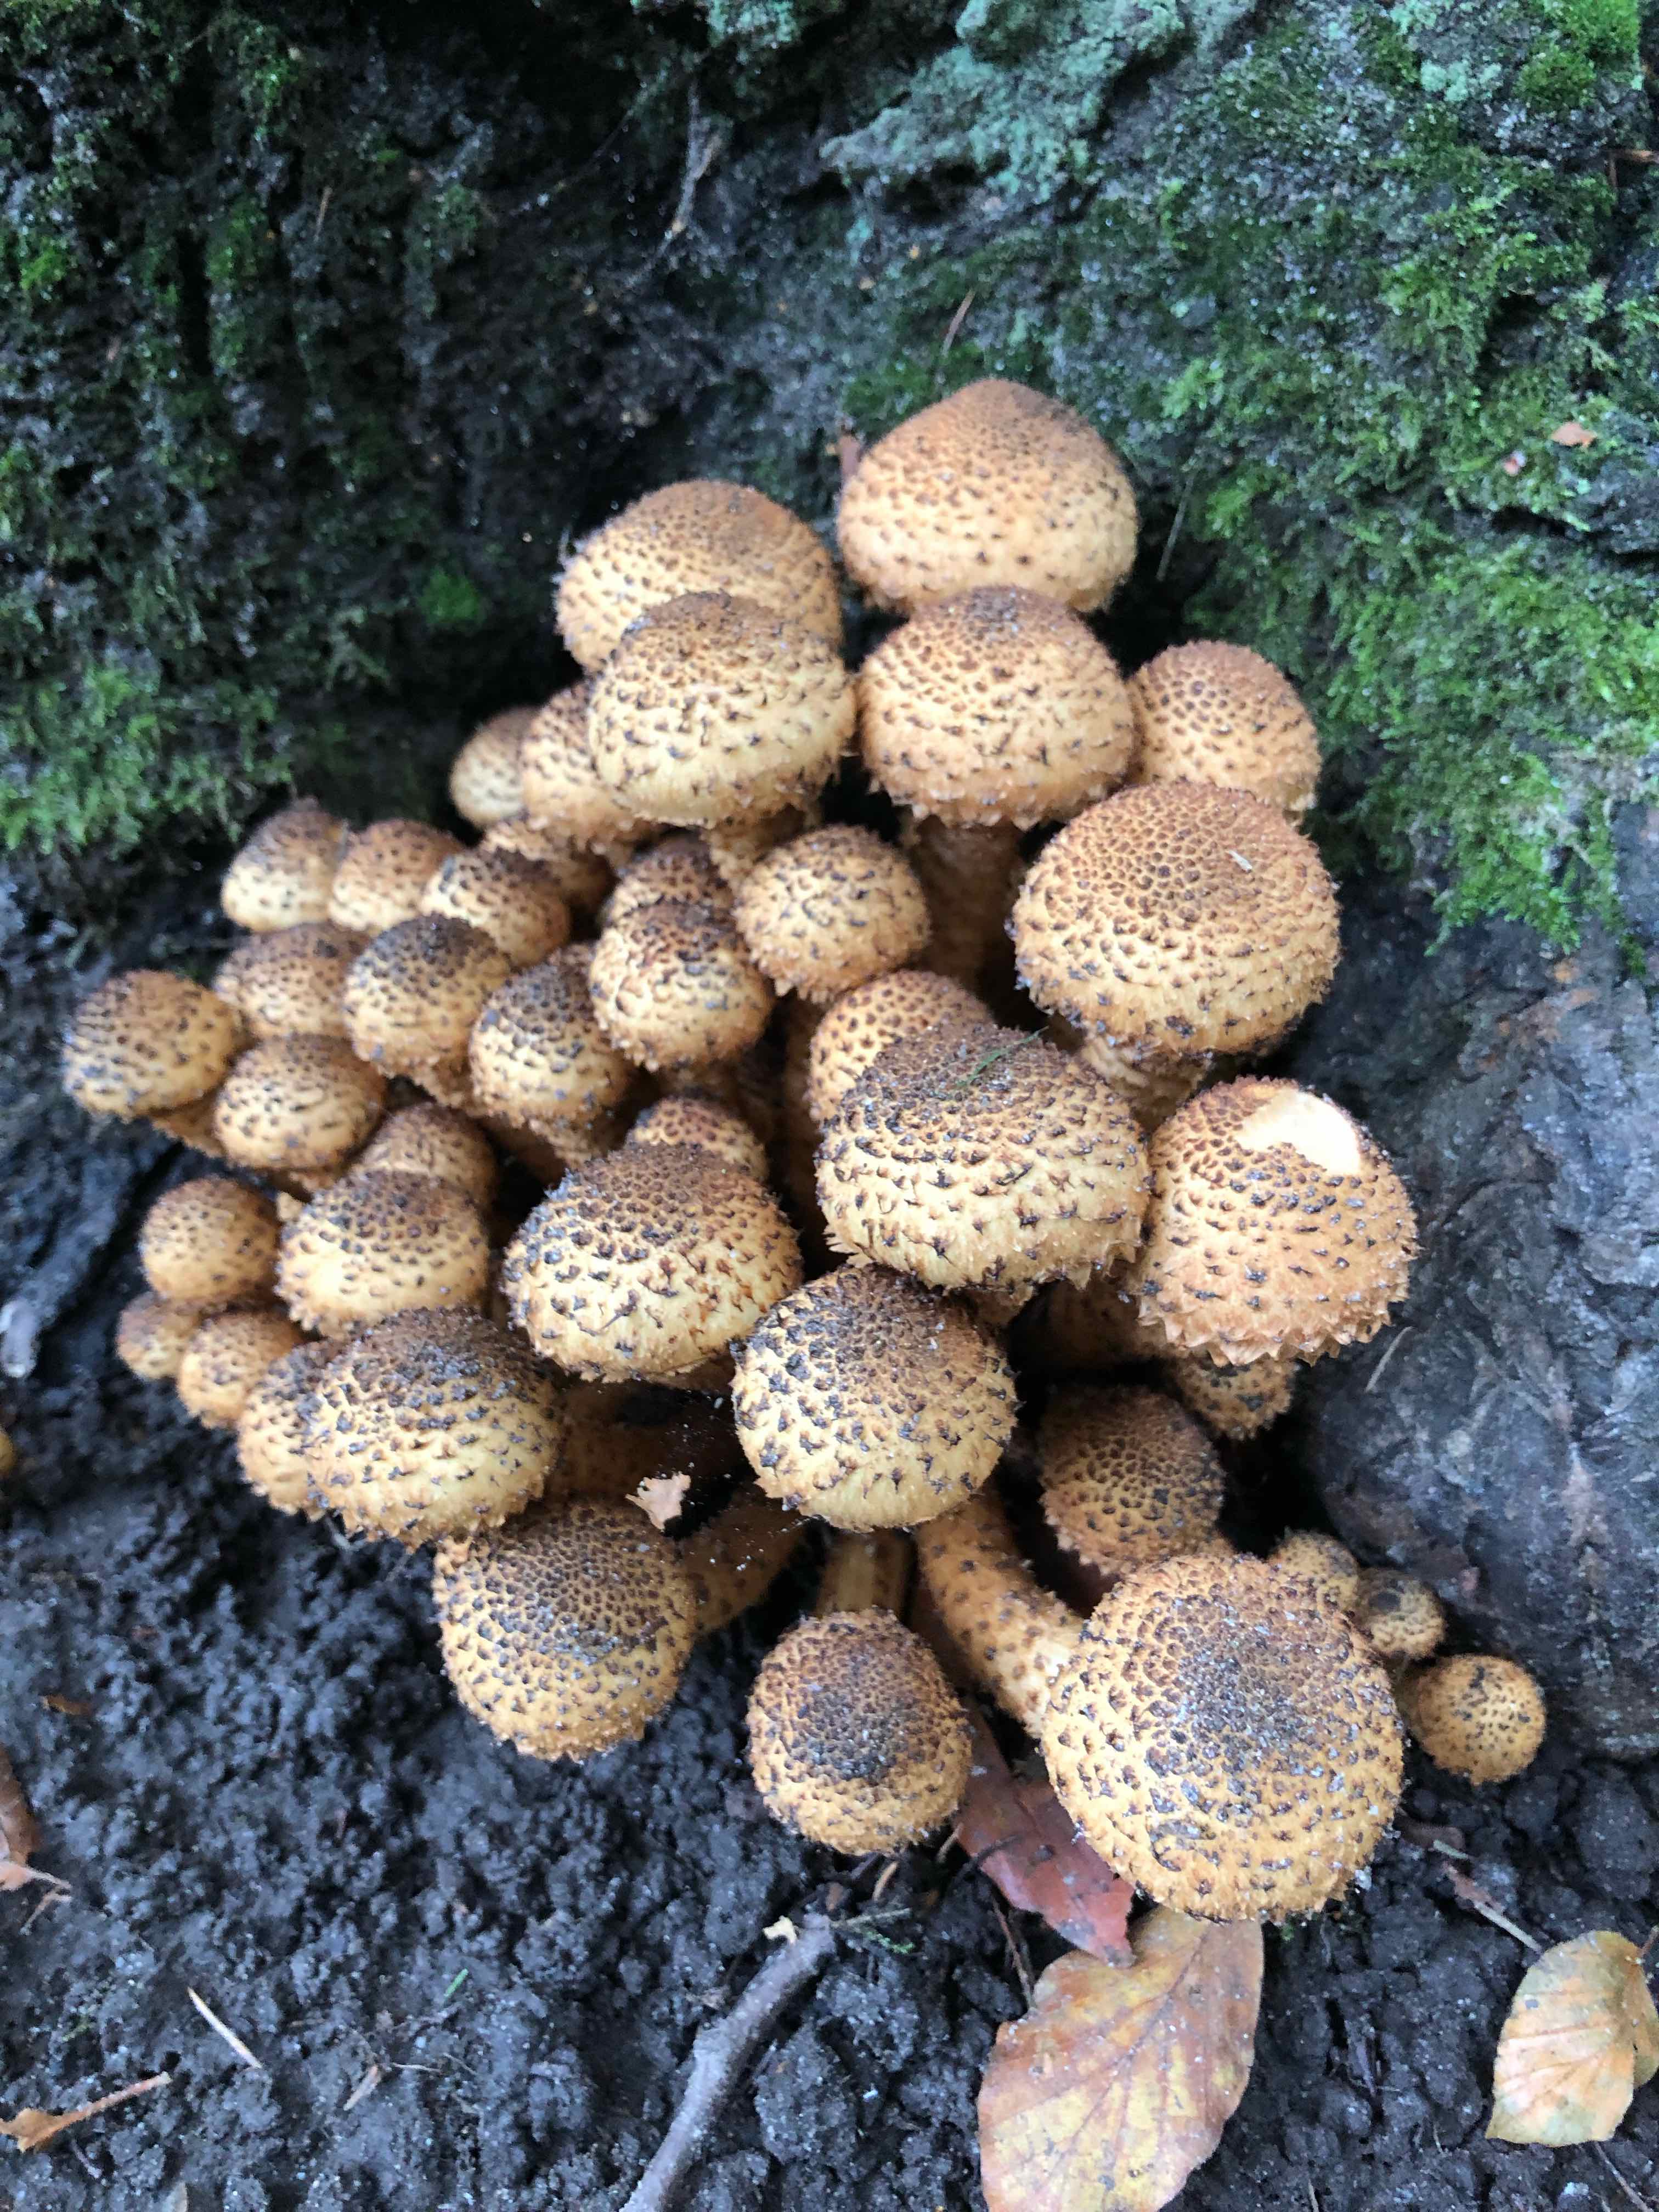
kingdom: Fungi
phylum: Basidiomycota
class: Agaricomycetes
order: Agaricales
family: Strophariaceae
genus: Pholiota
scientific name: Pholiota squarrosa
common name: krumskællet skælhat
